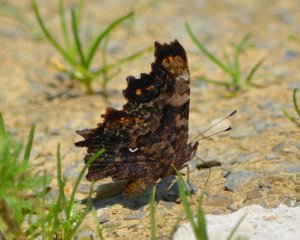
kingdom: Animalia
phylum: Arthropoda
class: Insecta
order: Lepidoptera
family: Nymphalidae
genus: Polygonia
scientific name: Polygonia faunus
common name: Green Comma
